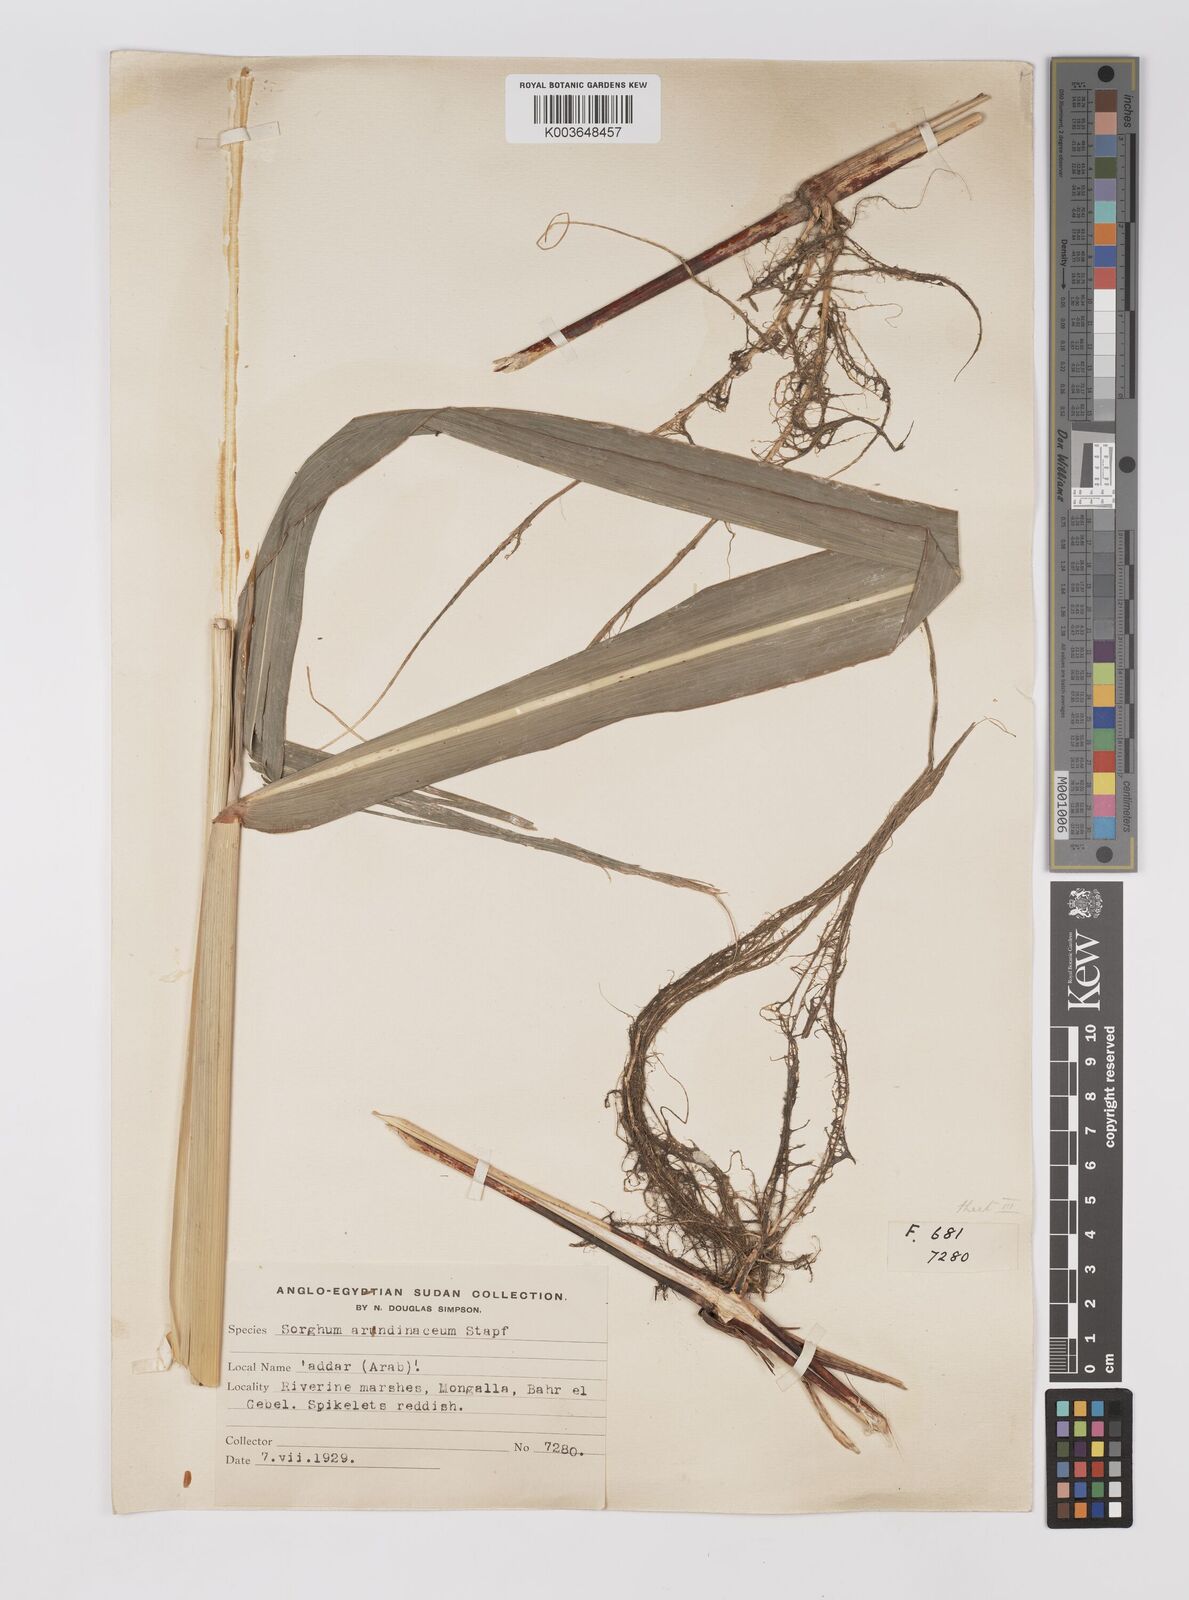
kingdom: Plantae
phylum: Tracheophyta
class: Liliopsida
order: Poales
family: Poaceae
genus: Sorghum
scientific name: Sorghum arundinaceum
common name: Sorghum
